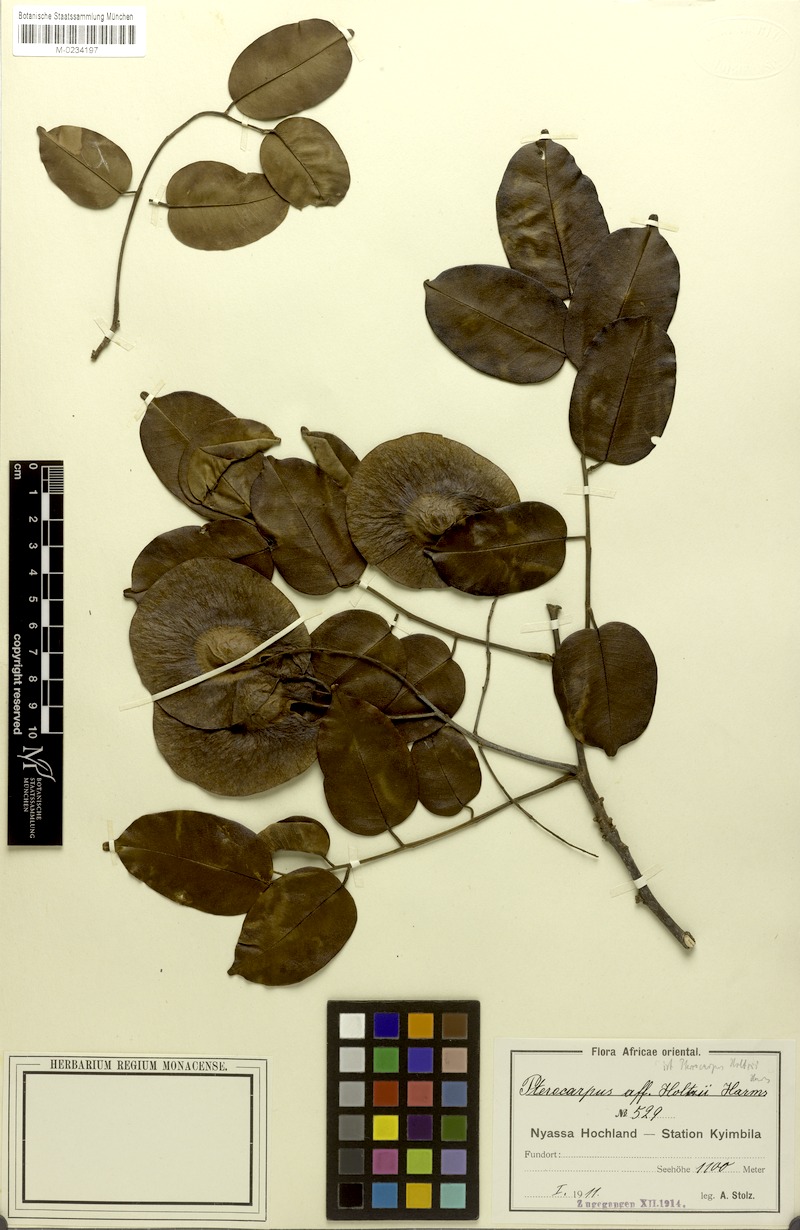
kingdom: Plantae
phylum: Tracheophyta
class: Magnoliopsida
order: Fabales
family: Fabaceae
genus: Pterocarpus
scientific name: Pterocarpus tinctorius
